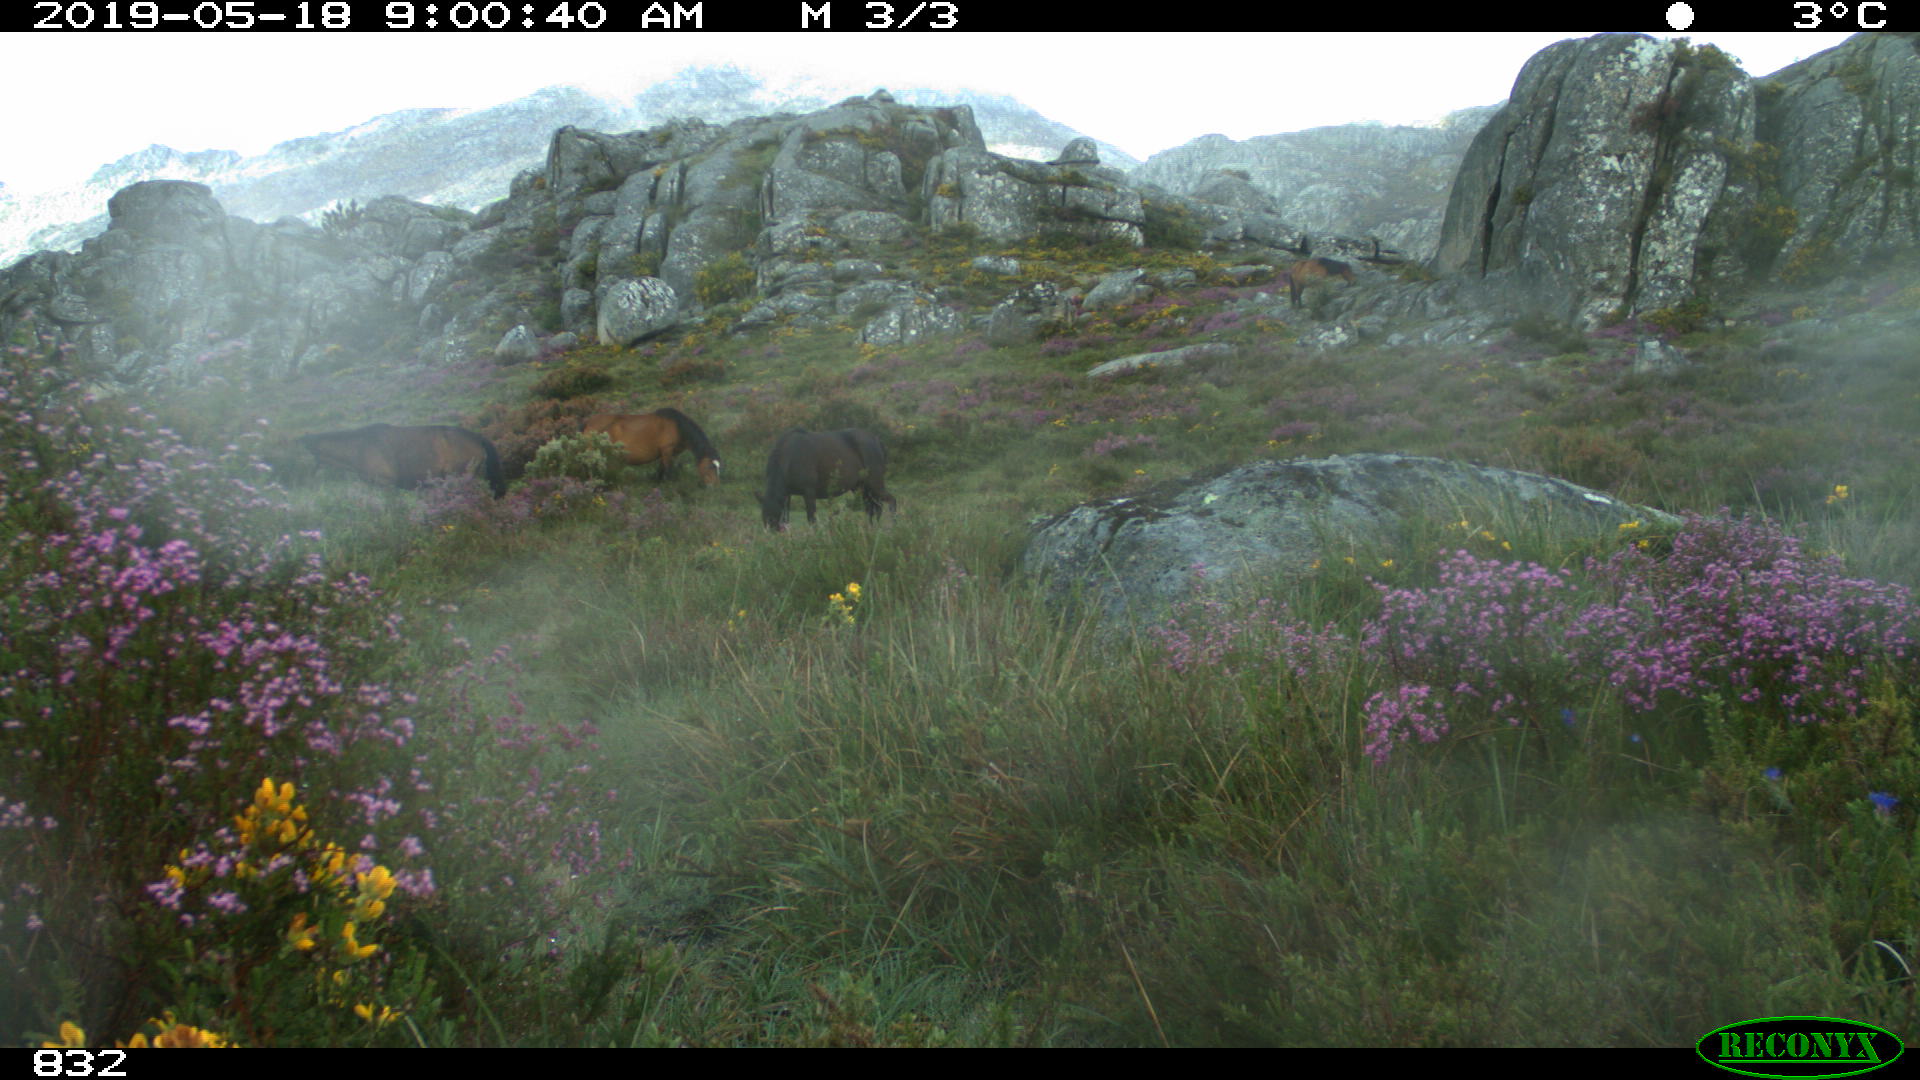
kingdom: Animalia
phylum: Chordata
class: Mammalia
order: Perissodactyla
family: Equidae
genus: Equus
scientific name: Equus caballus
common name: Horse
